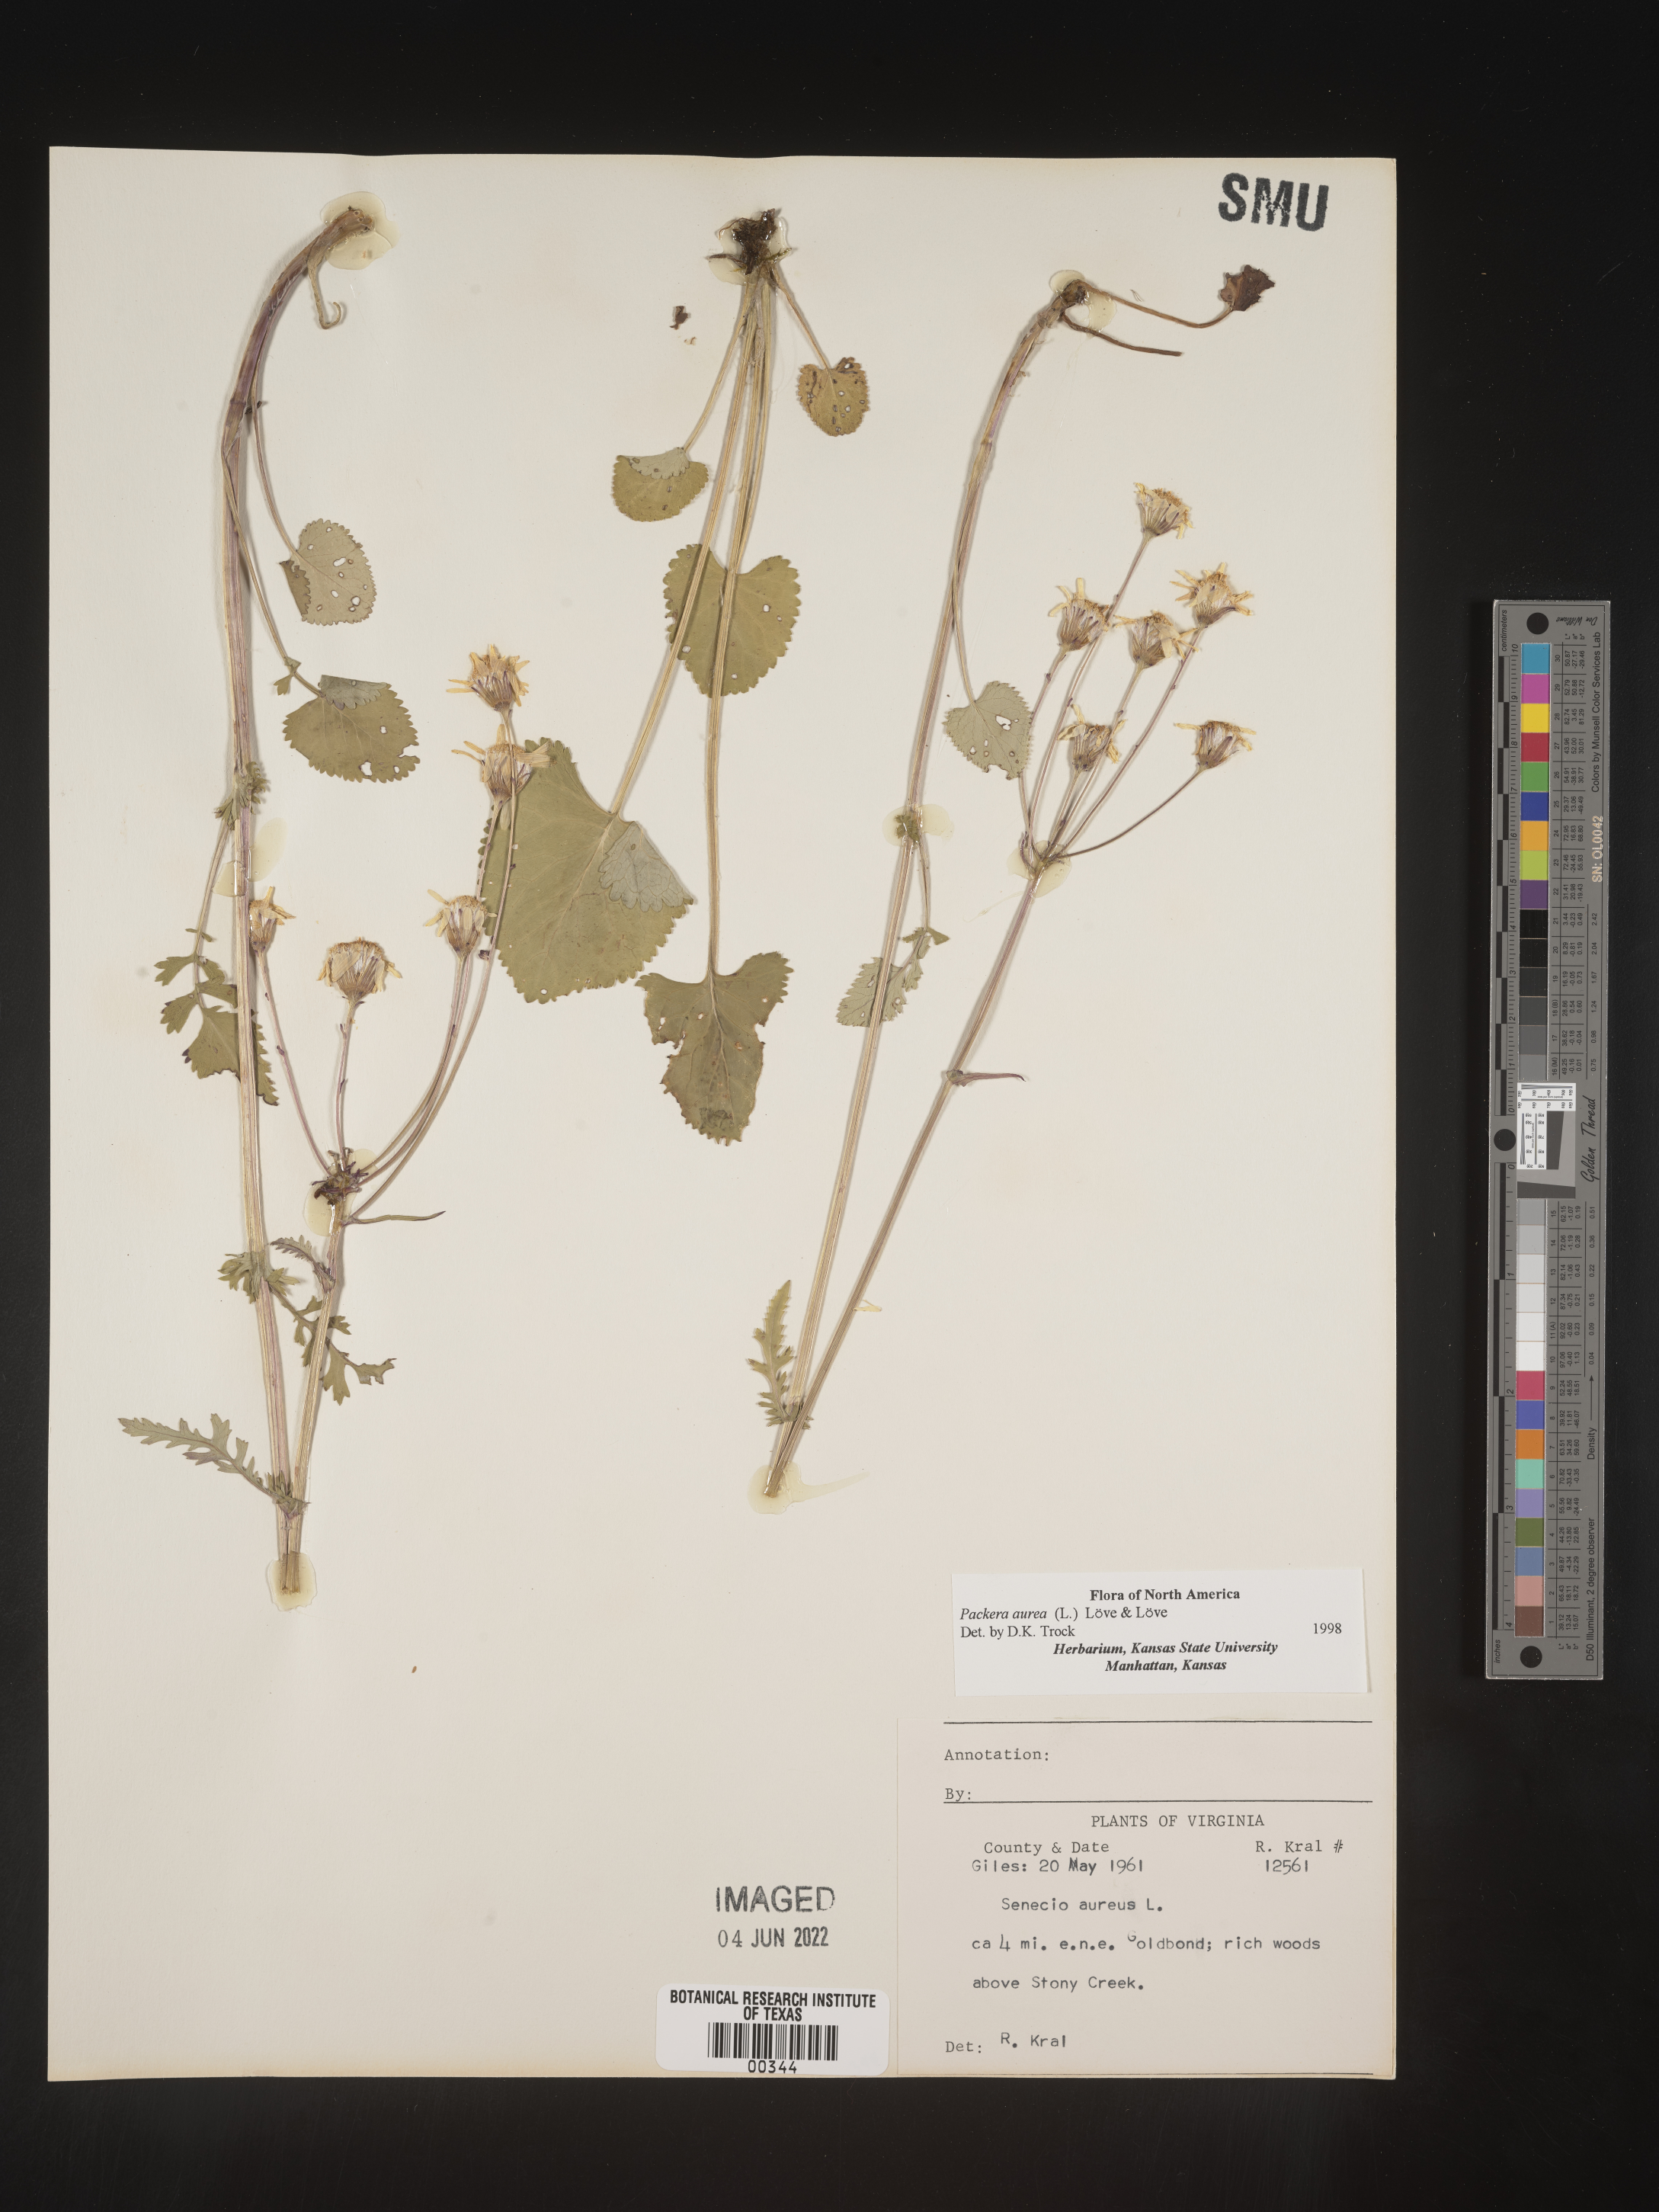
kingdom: Plantae
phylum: Tracheophyta
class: Magnoliopsida
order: Asterales
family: Asteraceae
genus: Packera
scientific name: Packera aurea
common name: Golden groundsel
